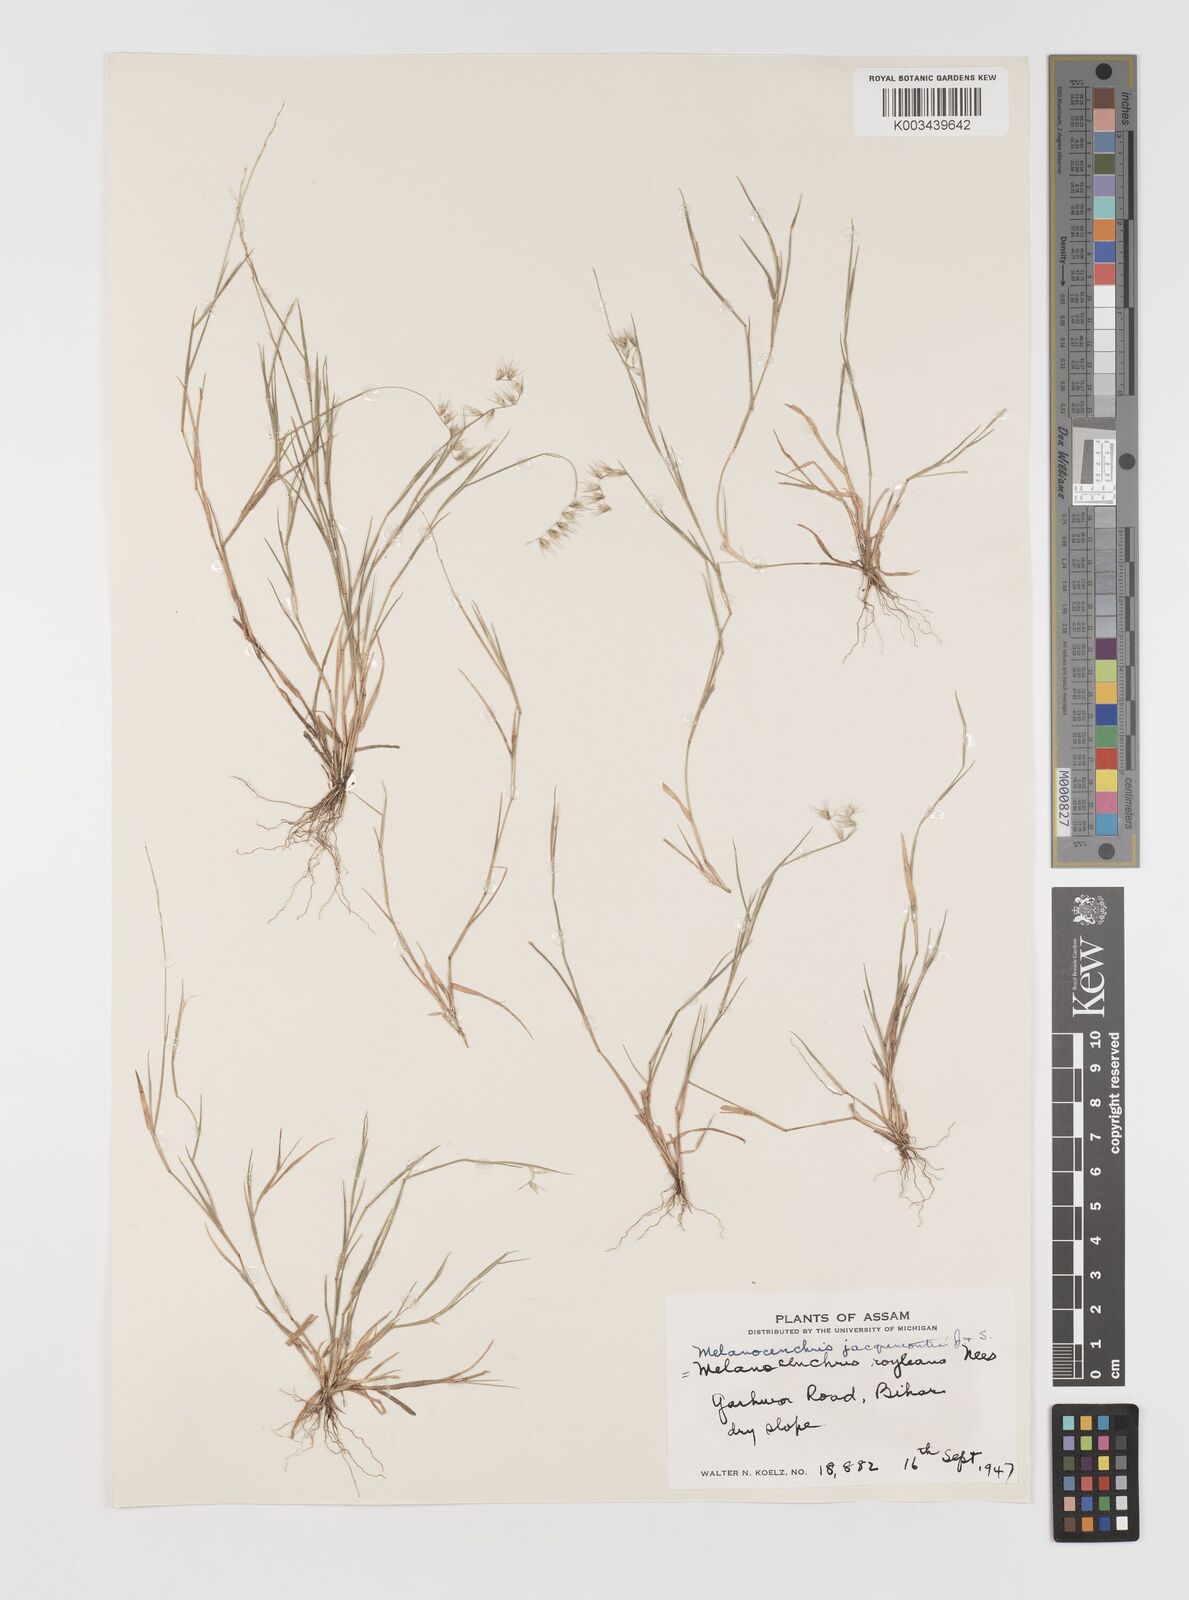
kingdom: Plantae
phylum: Tracheophyta
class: Liliopsida
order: Poales
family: Poaceae
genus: Melanocenchris
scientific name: Melanocenchris jacquemontii
